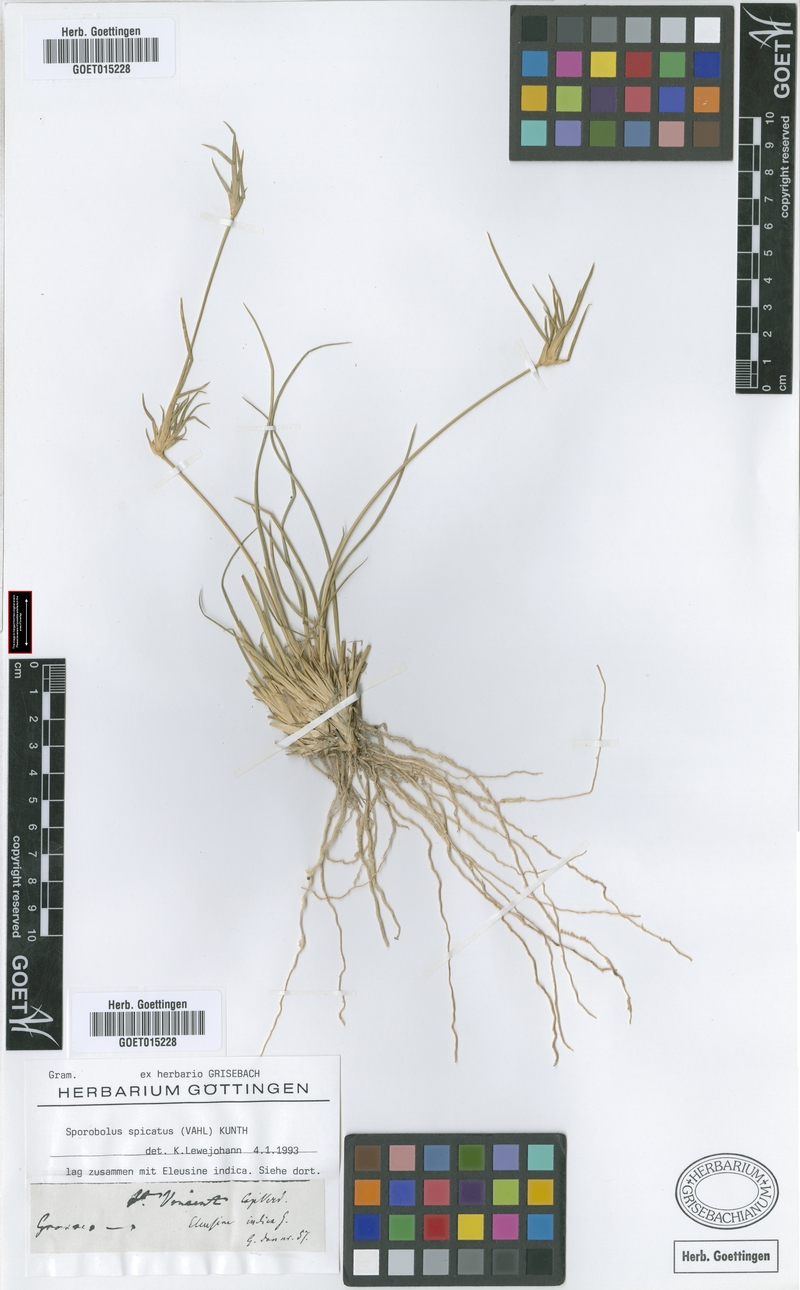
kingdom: Plantae
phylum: Tracheophyta
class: Liliopsida
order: Poales
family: Poaceae
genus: Sporobolus
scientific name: Sporobolus spicatus
